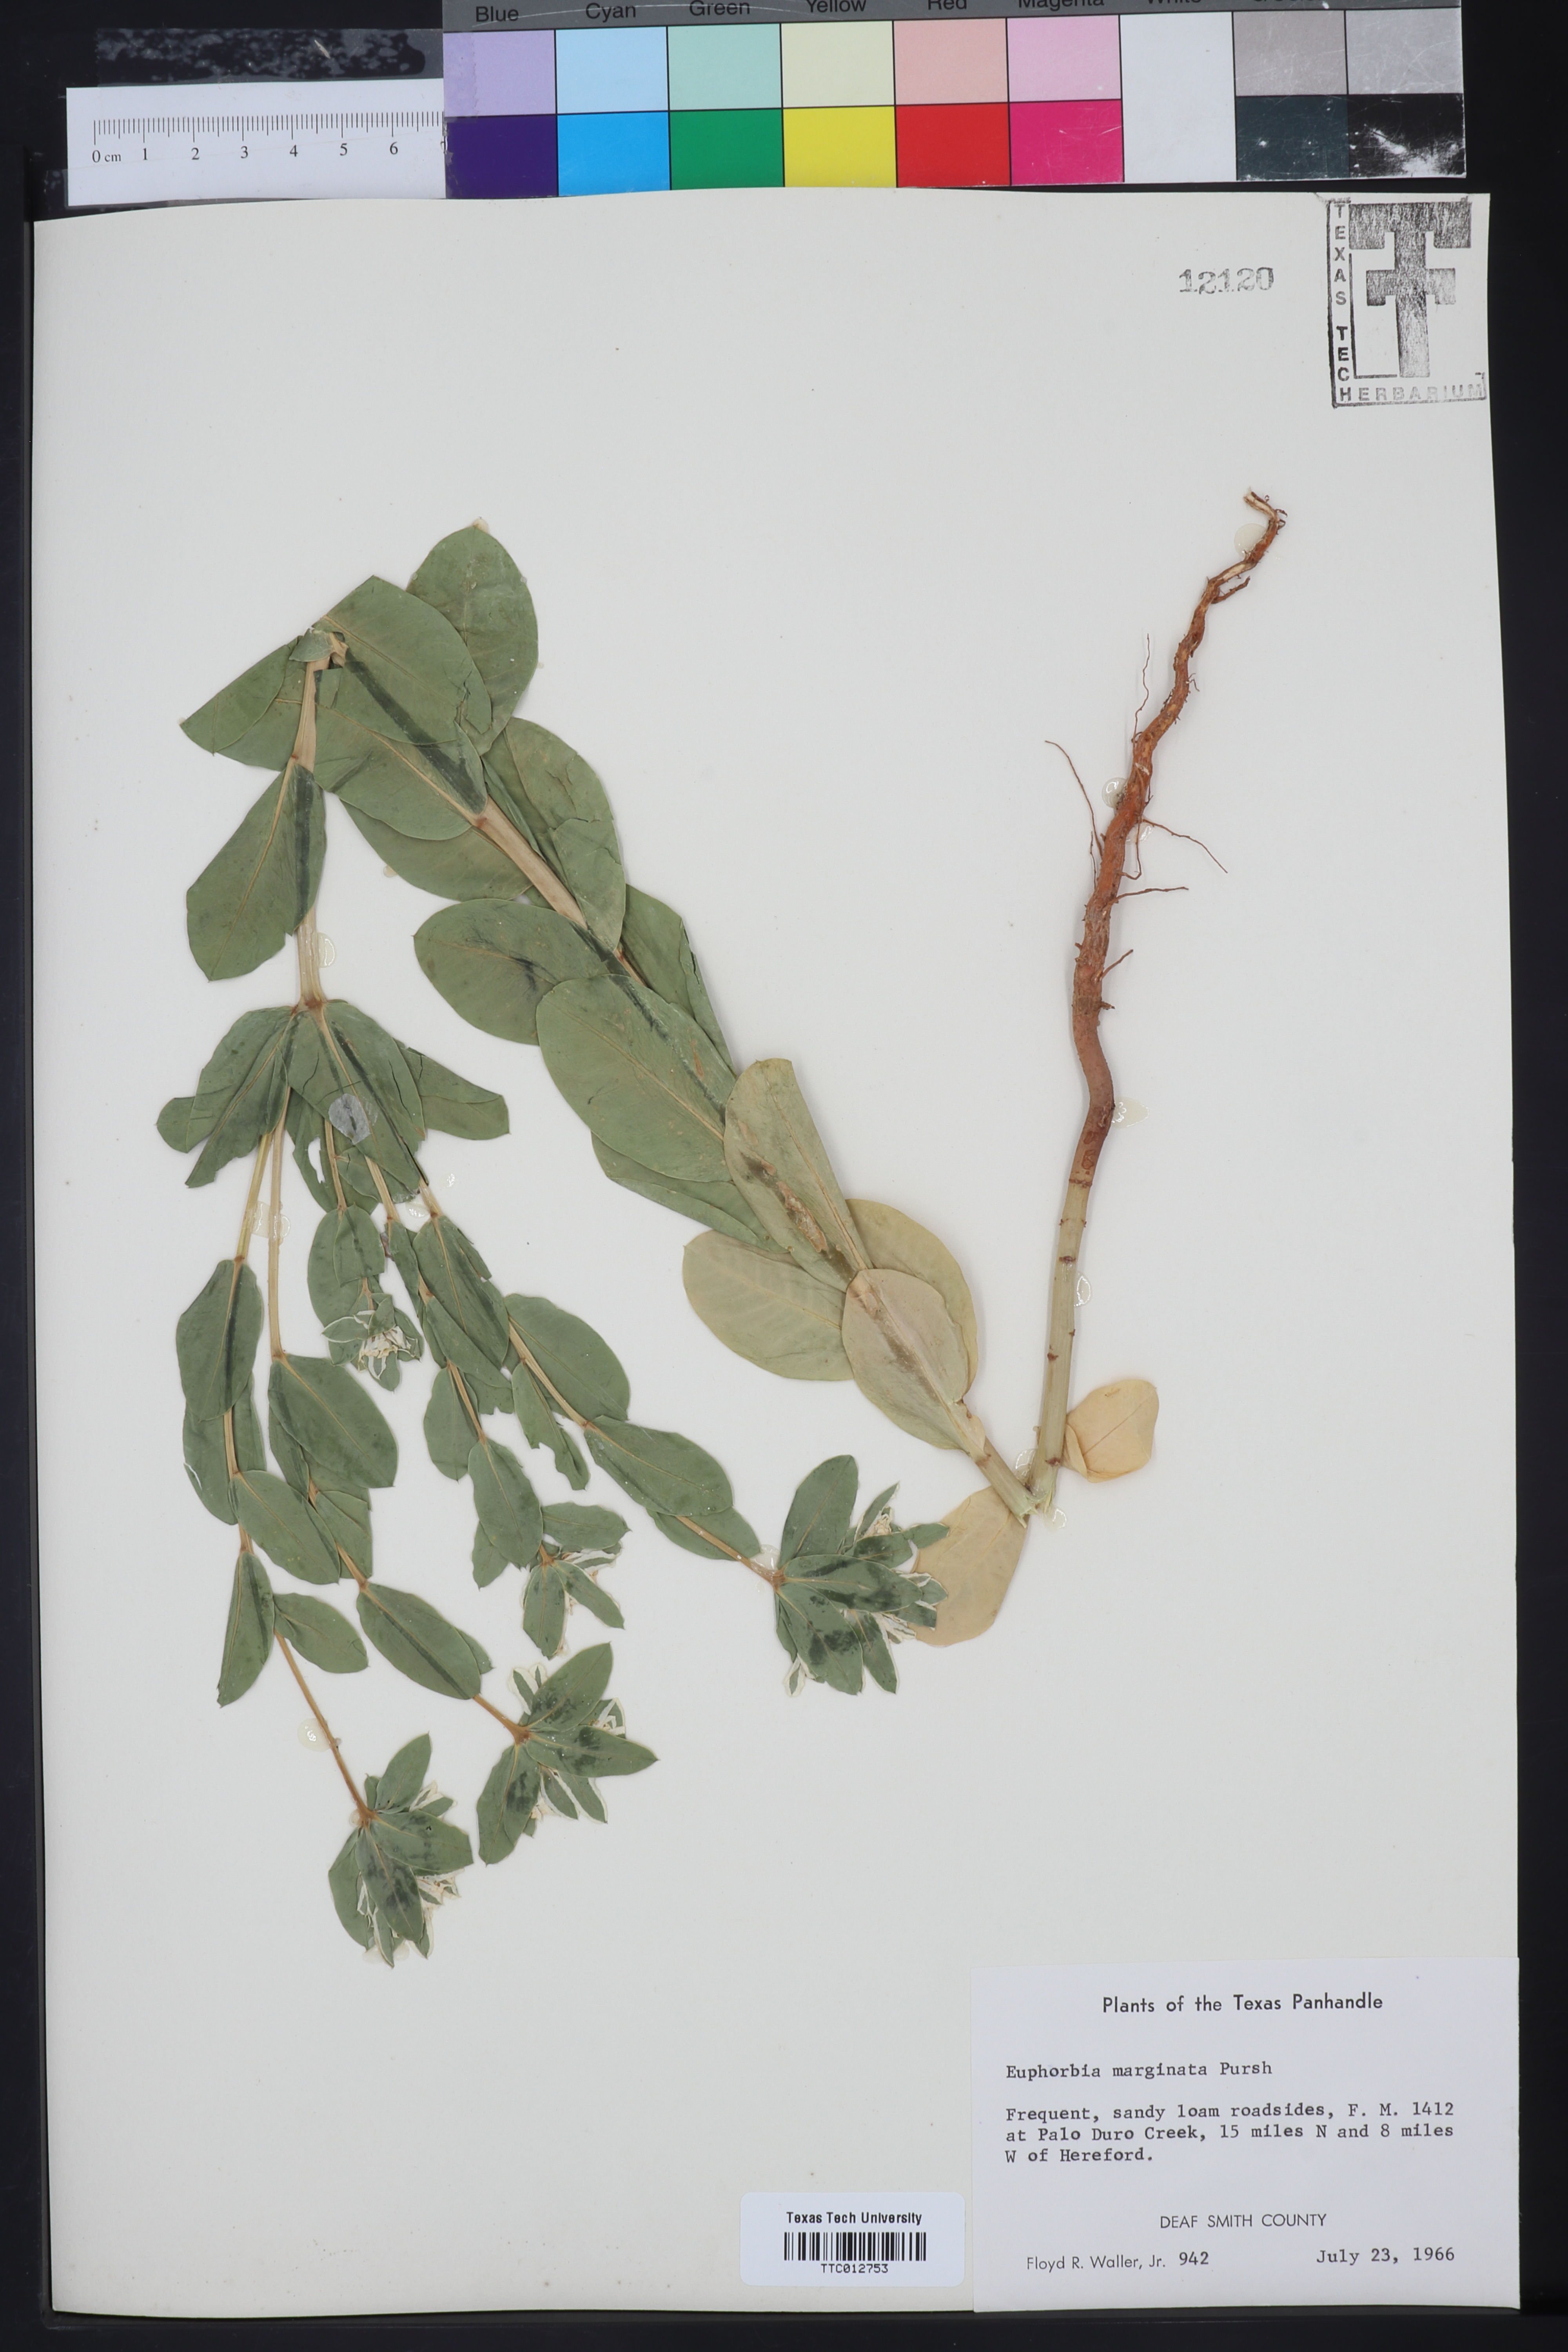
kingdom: Plantae
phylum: Tracheophyta
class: Magnoliopsida
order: Malpighiales
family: Euphorbiaceae
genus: Euphorbia
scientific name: Euphorbia marginata
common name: Ghostweed
